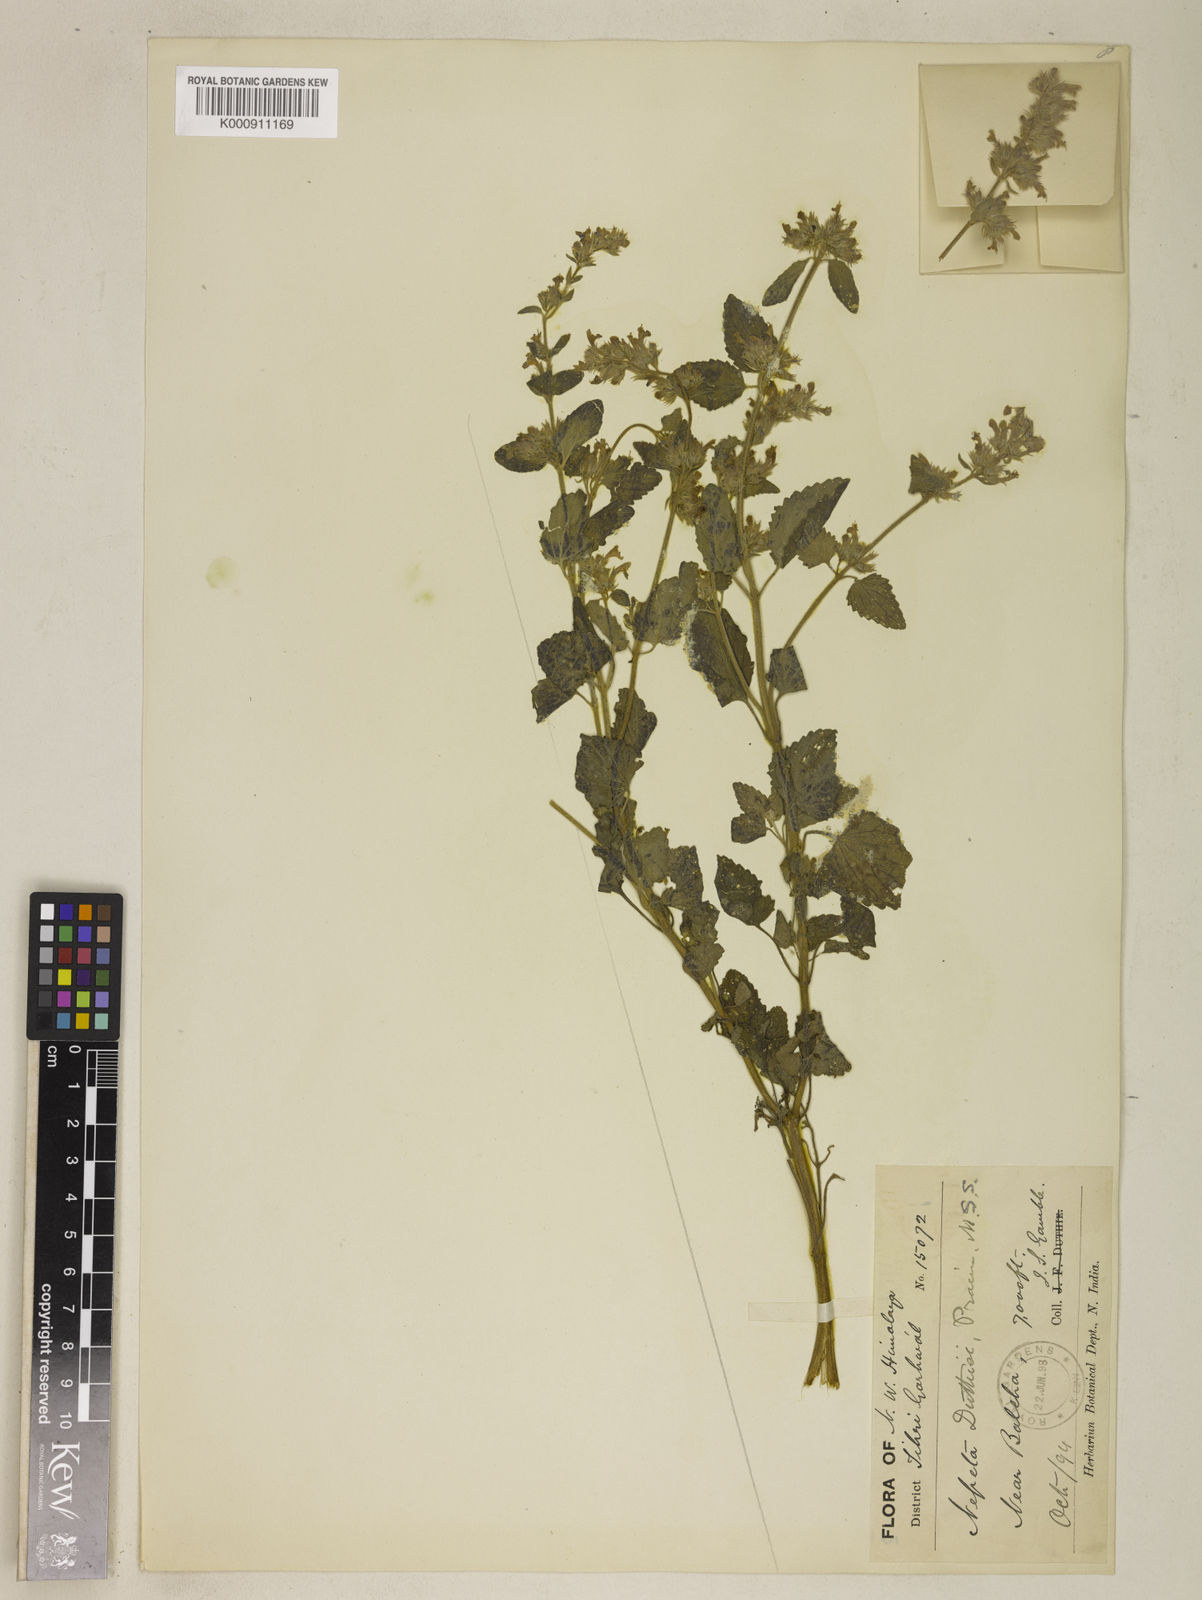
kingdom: Plantae
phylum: Tracheophyta
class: Magnoliopsida
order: Lamiales
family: Lamiaceae
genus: Nepeta
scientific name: Nepeta duthiei
